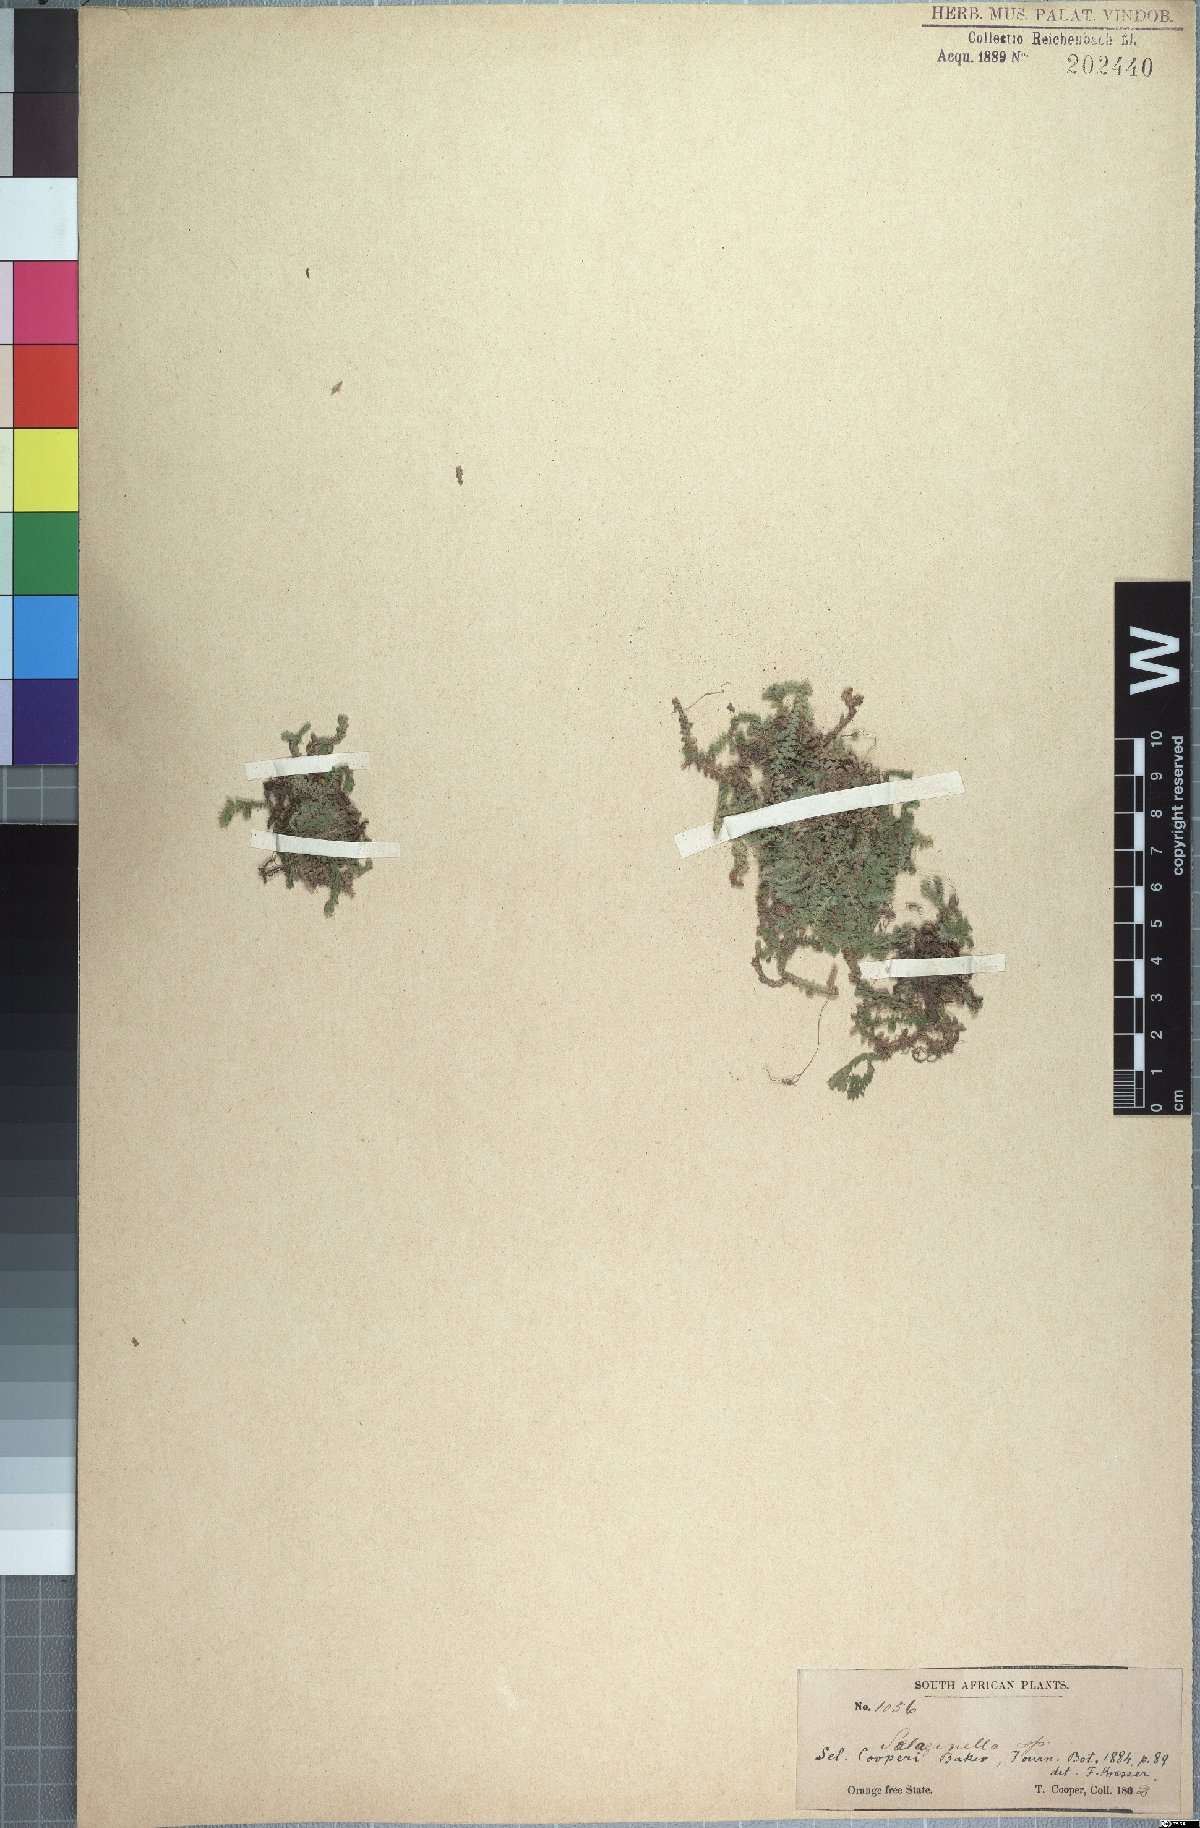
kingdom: Plantae
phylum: Tracheophyta
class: Lycopodiopsida
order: Selaginellales
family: Selaginellaceae
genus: Selaginella
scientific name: Selaginella mittenii
